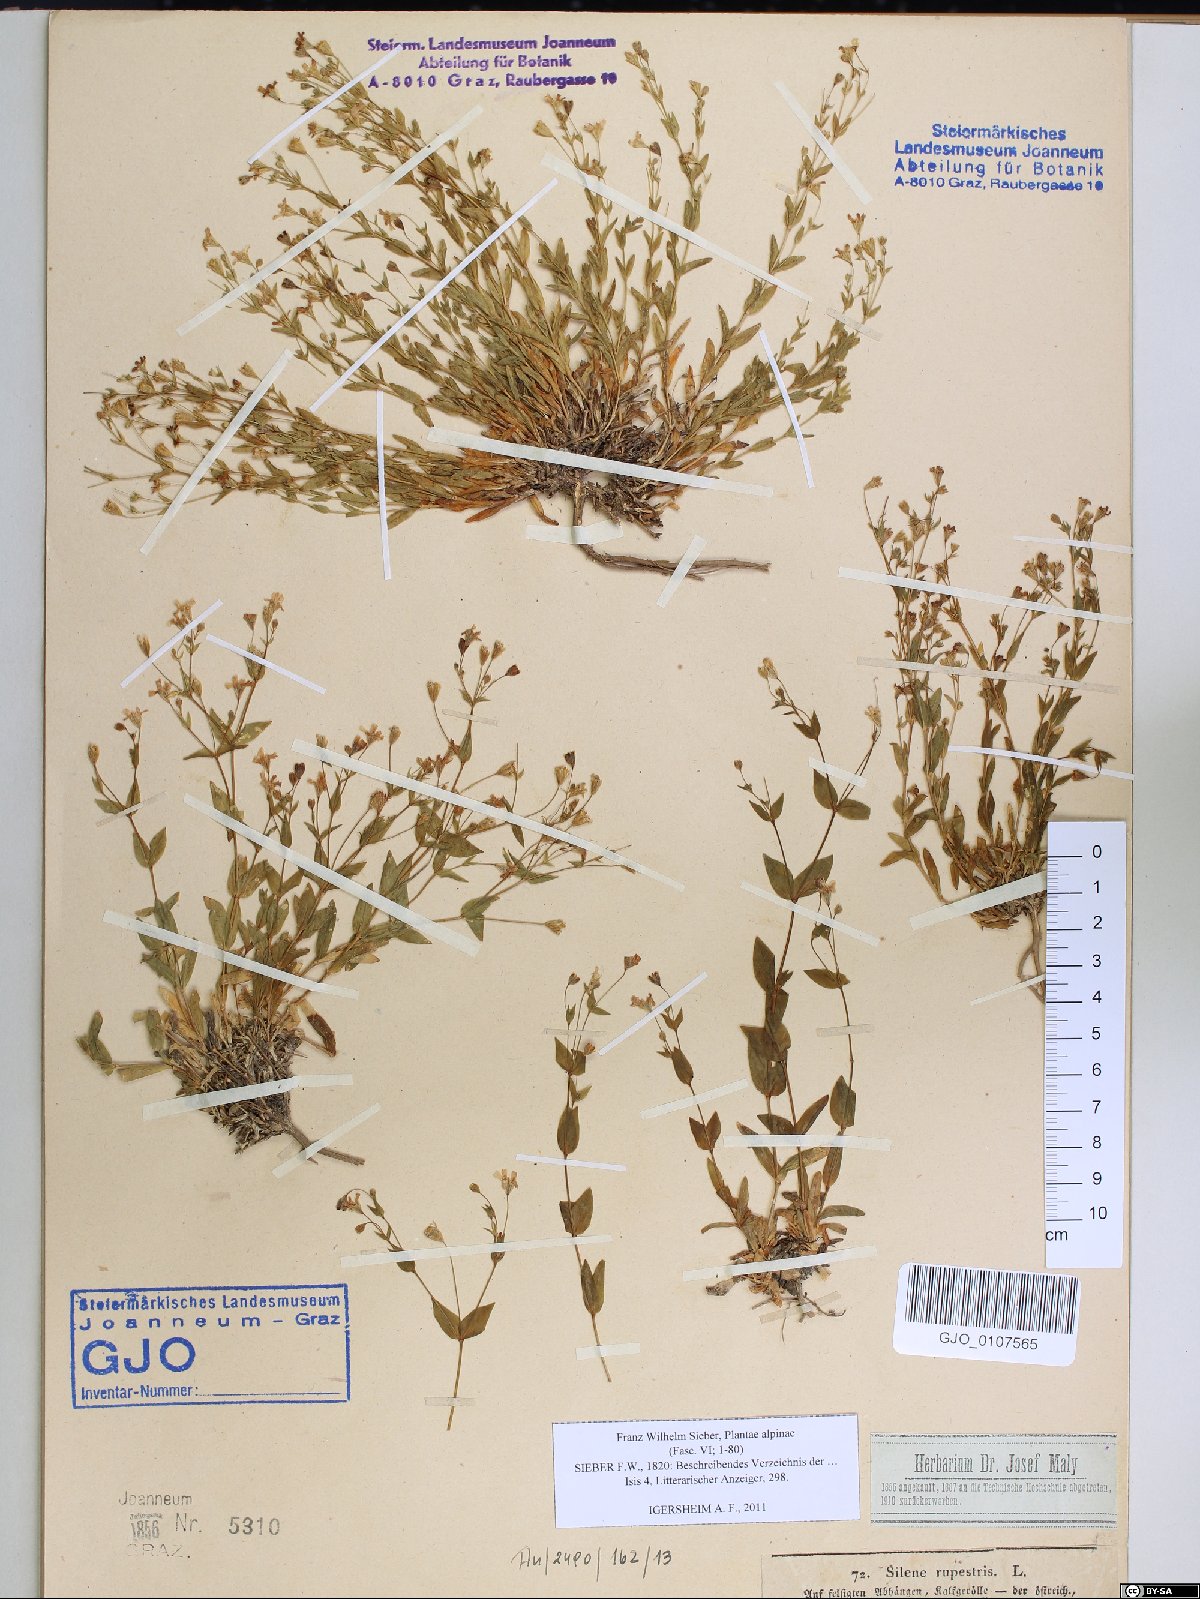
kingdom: Plantae
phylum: Tracheophyta
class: Magnoliopsida
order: Caryophyllales
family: Caryophyllaceae
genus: Atocion
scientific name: Atocion rupestre
